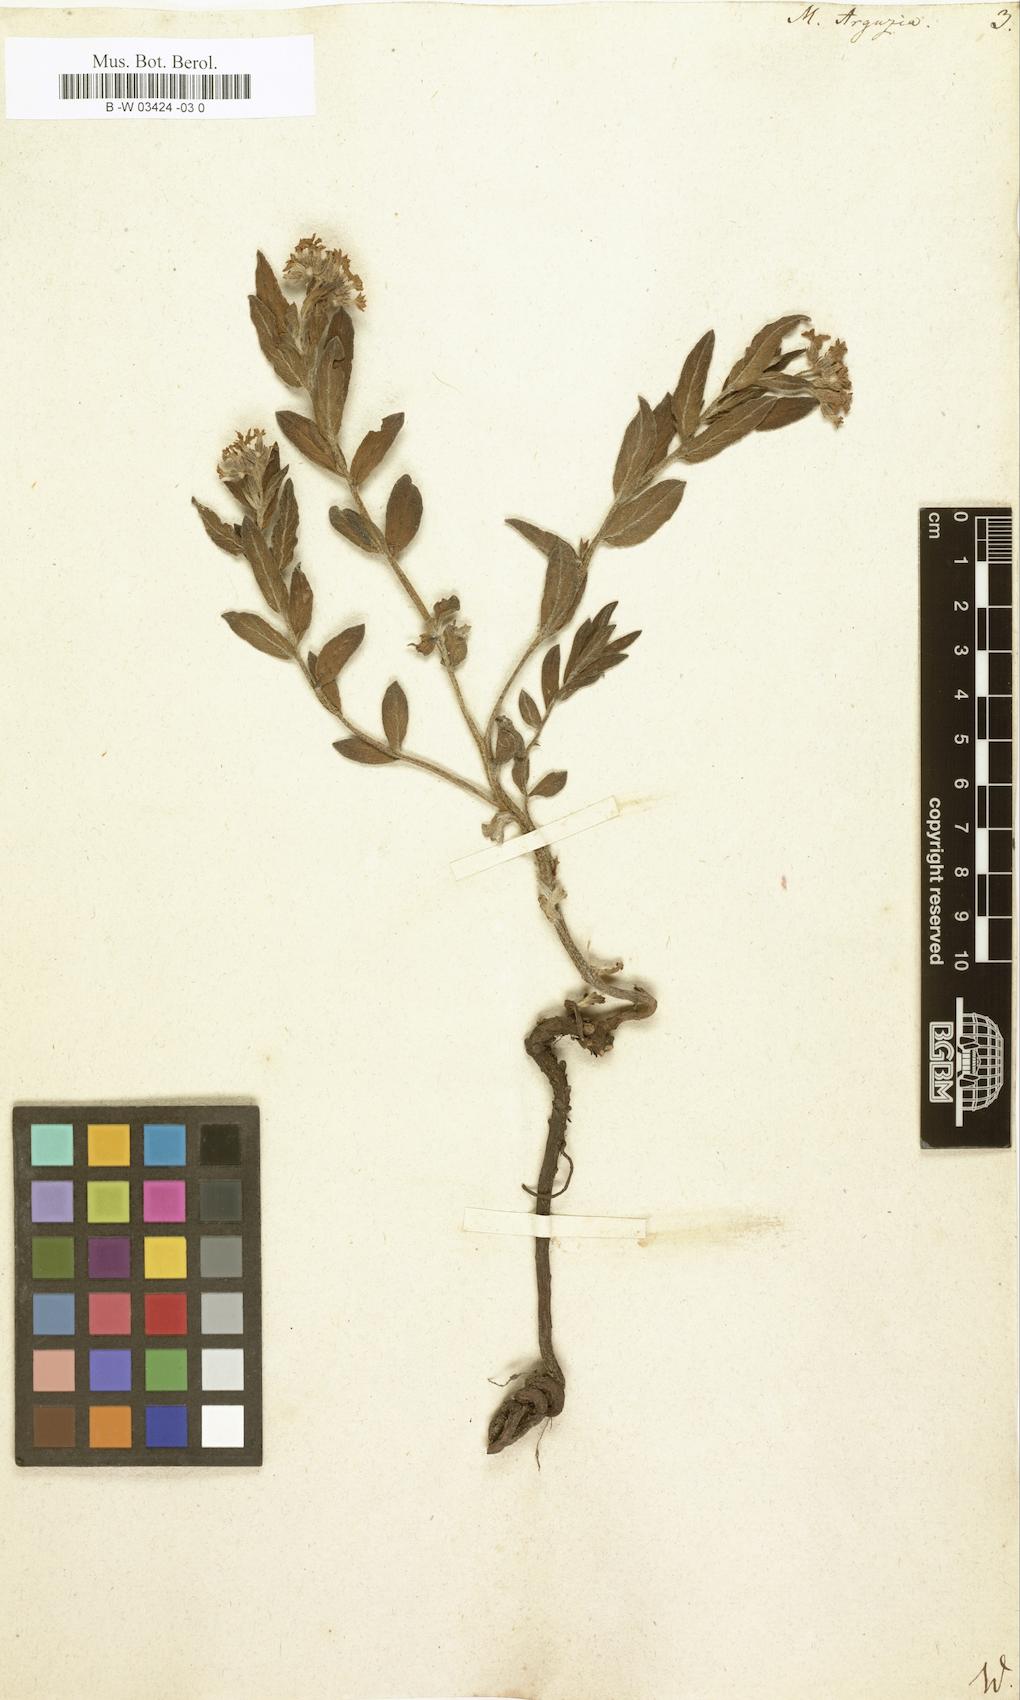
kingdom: Plantae
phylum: Tracheophyta
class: Magnoliopsida
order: Boraginales
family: Heliotropiaceae
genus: Tournefortia
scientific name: Tournefortia sibirica
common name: Siberian sea rosemary
